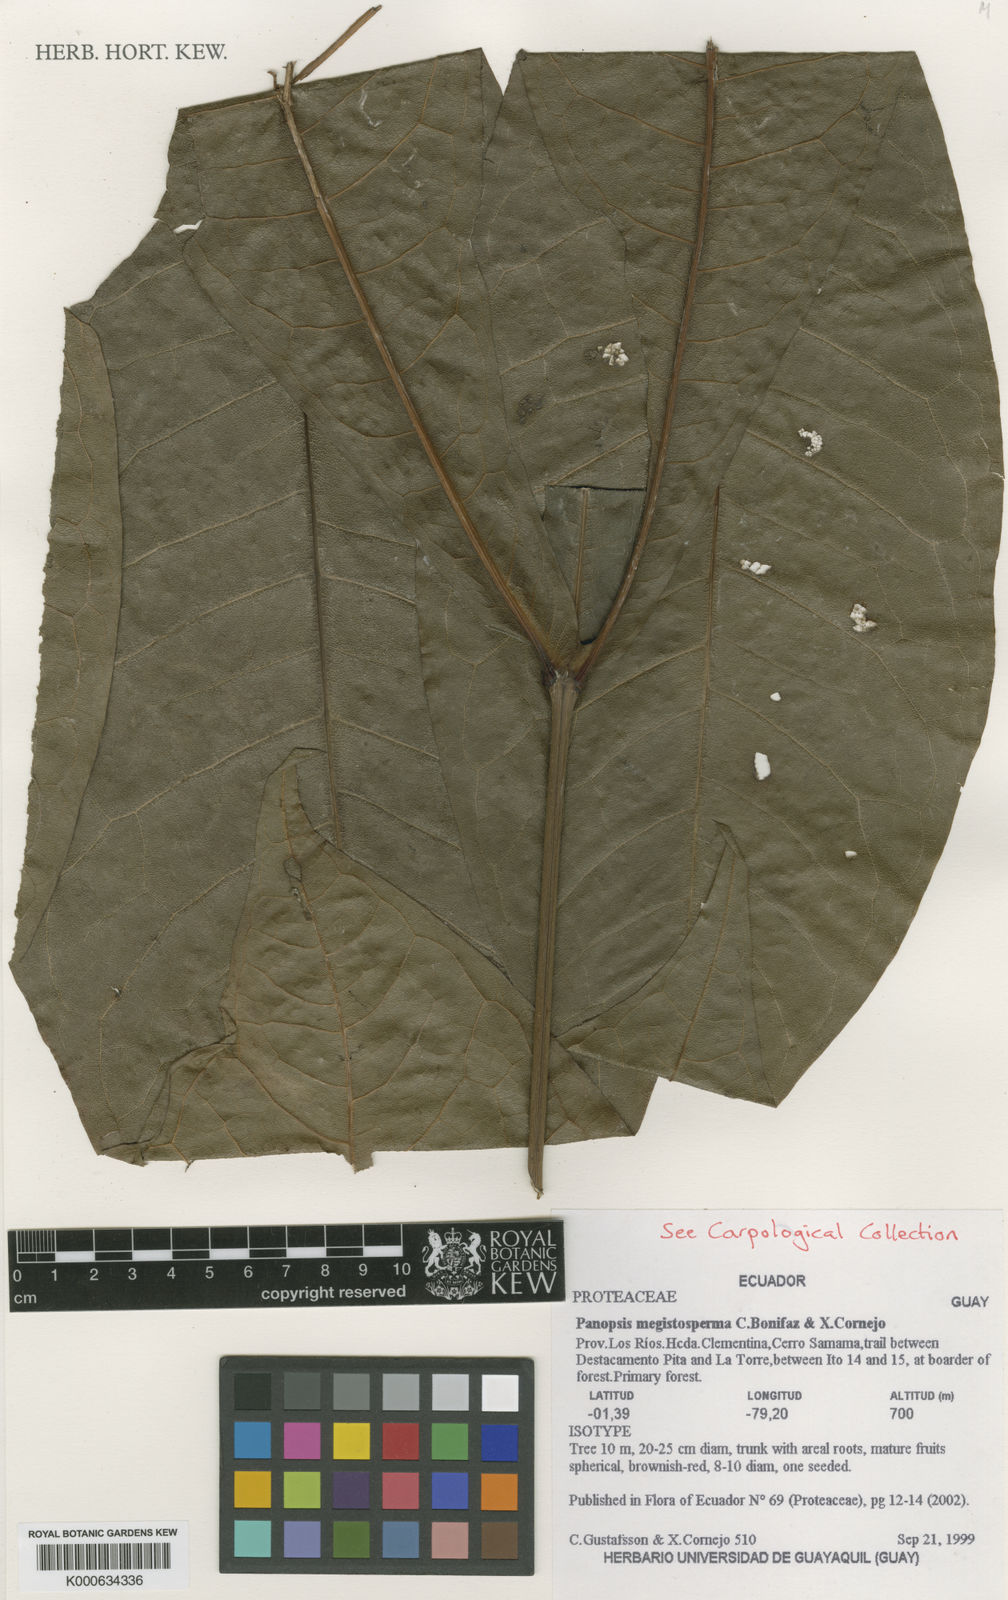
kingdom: Plantae
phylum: Tracheophyta
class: Magnoliopsida
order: Proteales
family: Proteaceae
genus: Panopsis
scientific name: Panopsis megistosperma
